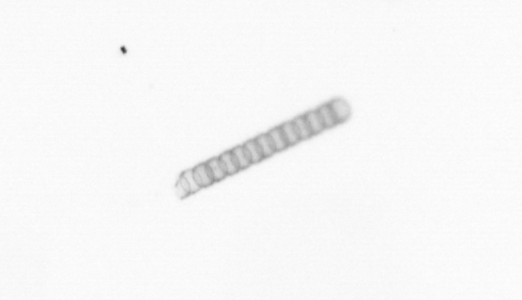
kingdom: Chromista
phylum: Ochrophyta
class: Bacillariophyceae
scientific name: Bacillariophyceae
